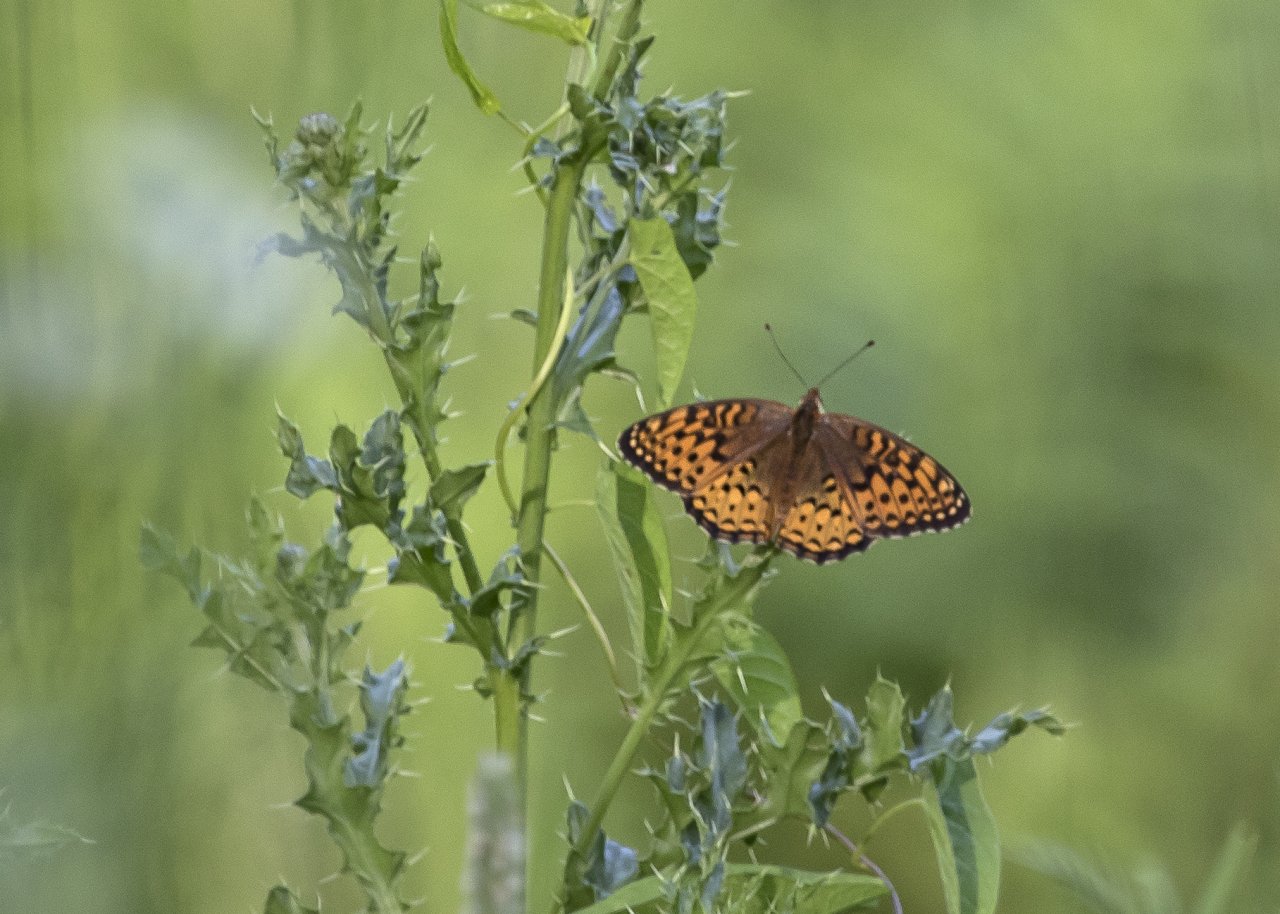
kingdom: Animalia
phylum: Arthropoda
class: Insecta
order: Lepidoptera
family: Nymphalidae
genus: Speyeria
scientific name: Speyeria atlantis
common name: Atlantis Fritillary
